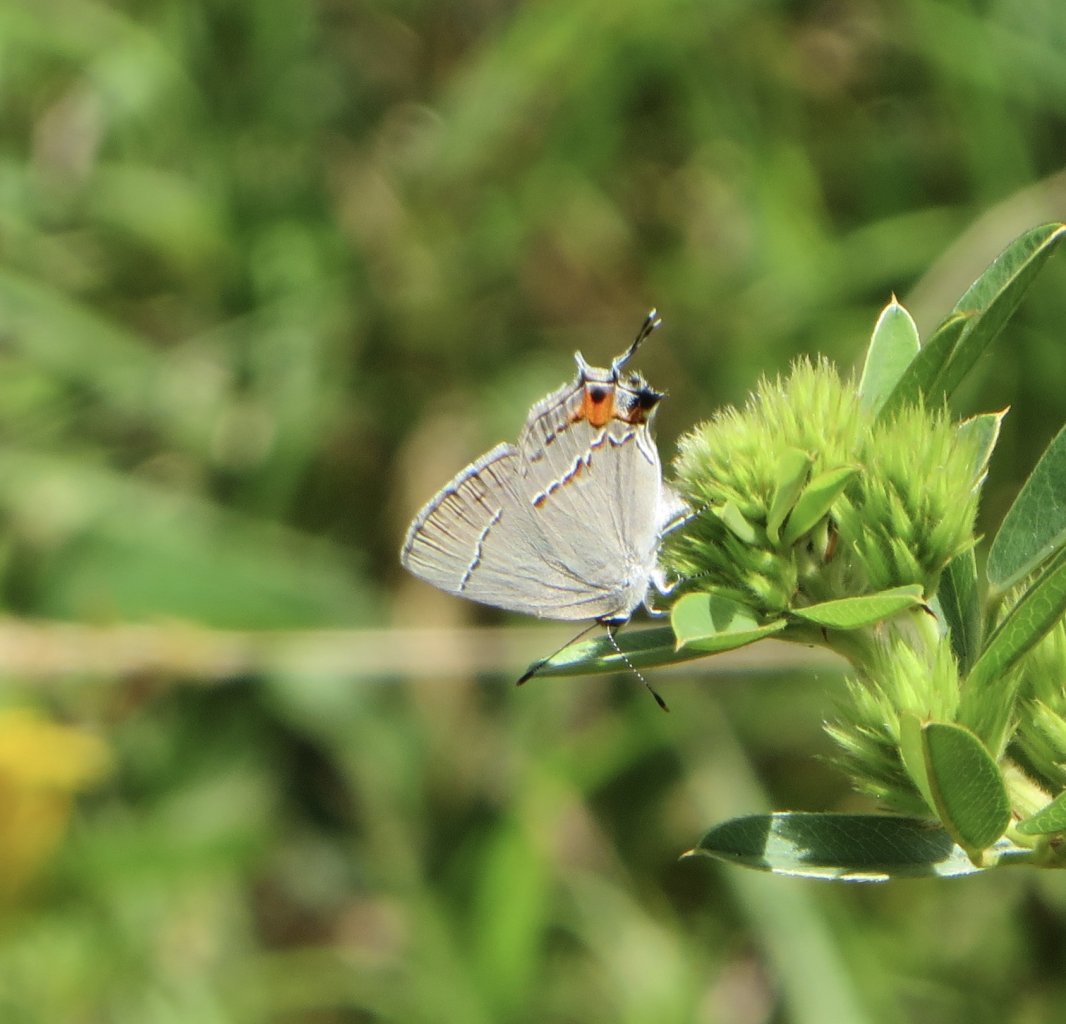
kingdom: Animalia
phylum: Arthropoda
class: Insecta
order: Lepidoptera
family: Lycaenidae
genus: Strymon
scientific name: Strymon melinus
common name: Gray Hairstreak
